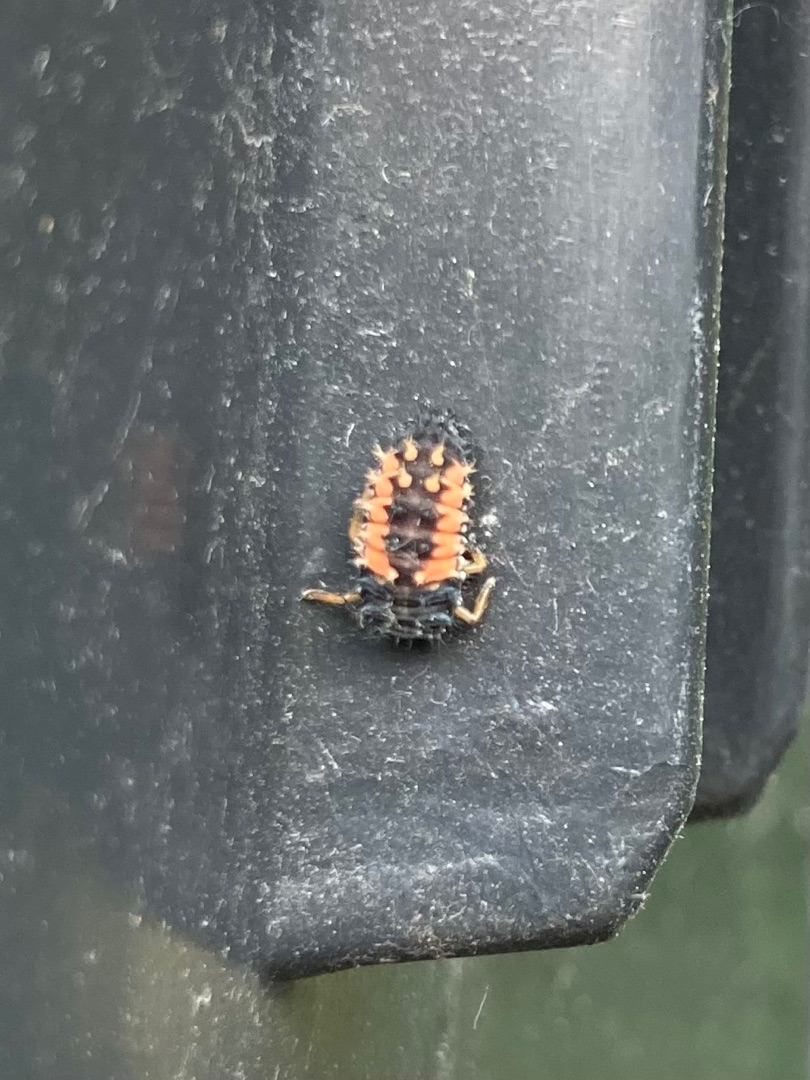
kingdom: Animalia
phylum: Arthropoda
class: Insecta
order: Coleoptera
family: Coccinellidae
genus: Harmonia
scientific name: Harmonia axyridis
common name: Harlekinmariehøne
